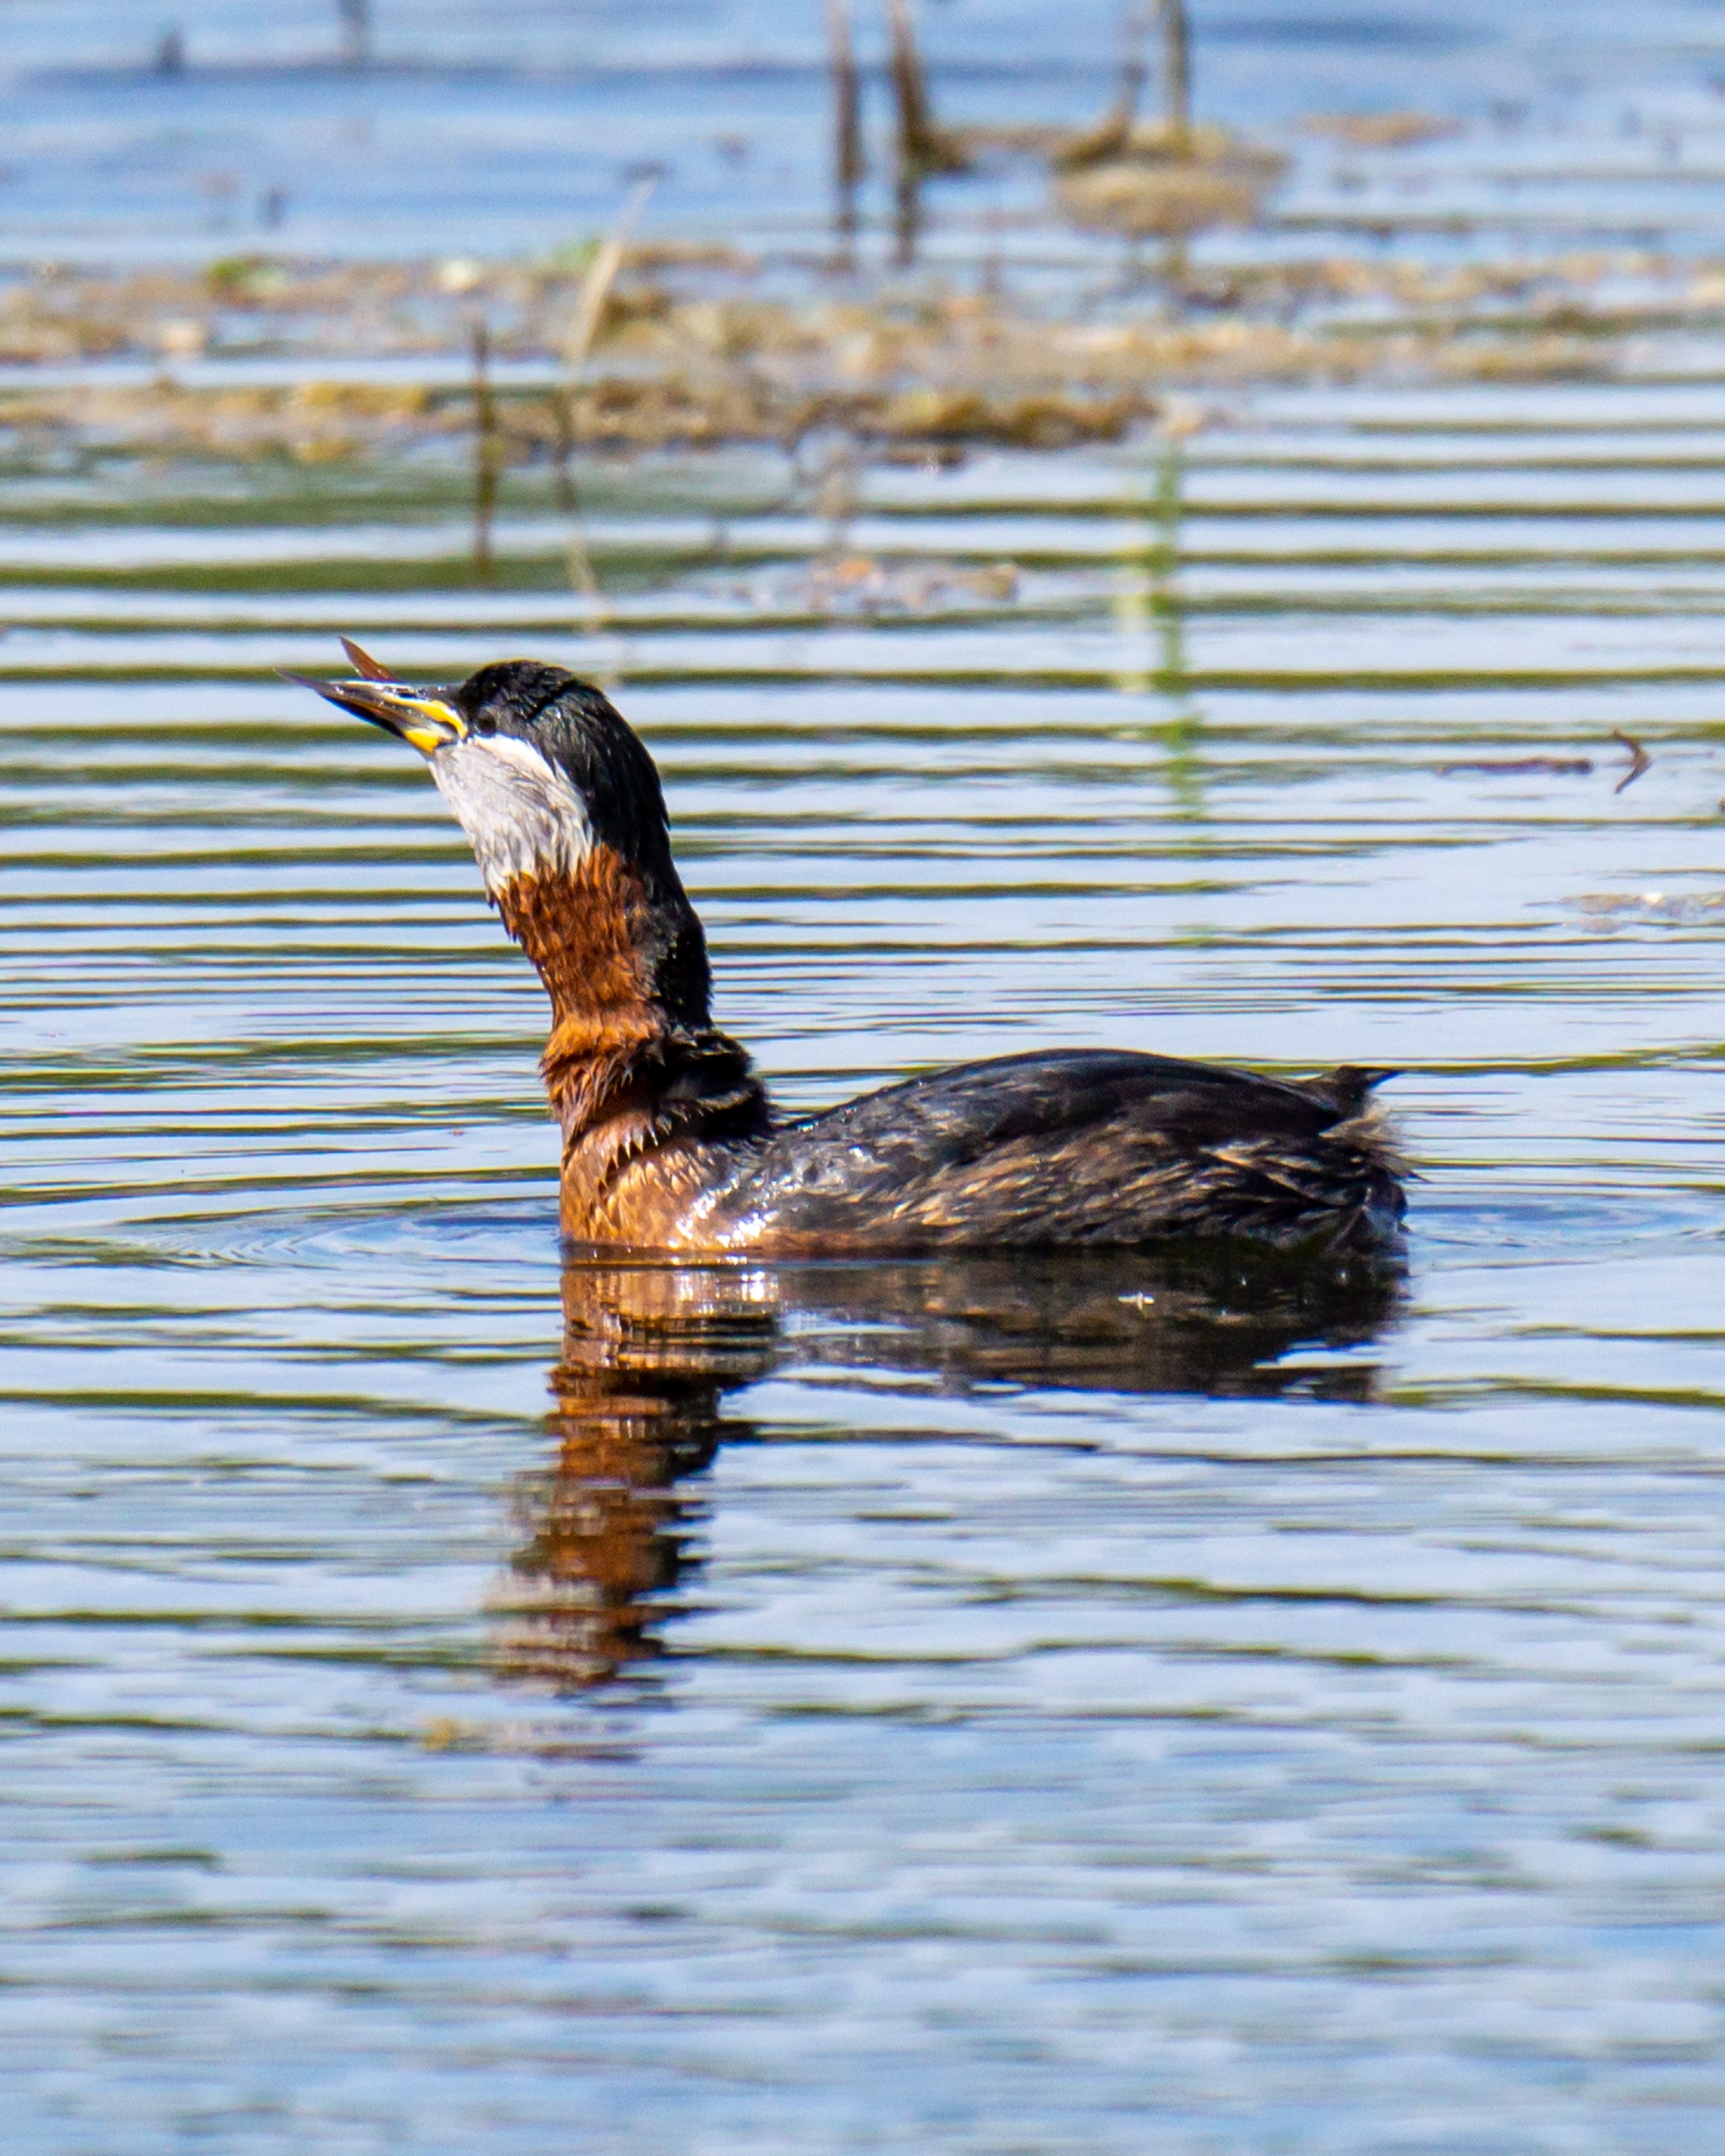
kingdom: Animalia
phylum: Chordata
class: Aves
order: Podicipediformes
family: Podicipedidae
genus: Podiceps
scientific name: Podiceps grisegena
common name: Gråstrubet lappedykker
